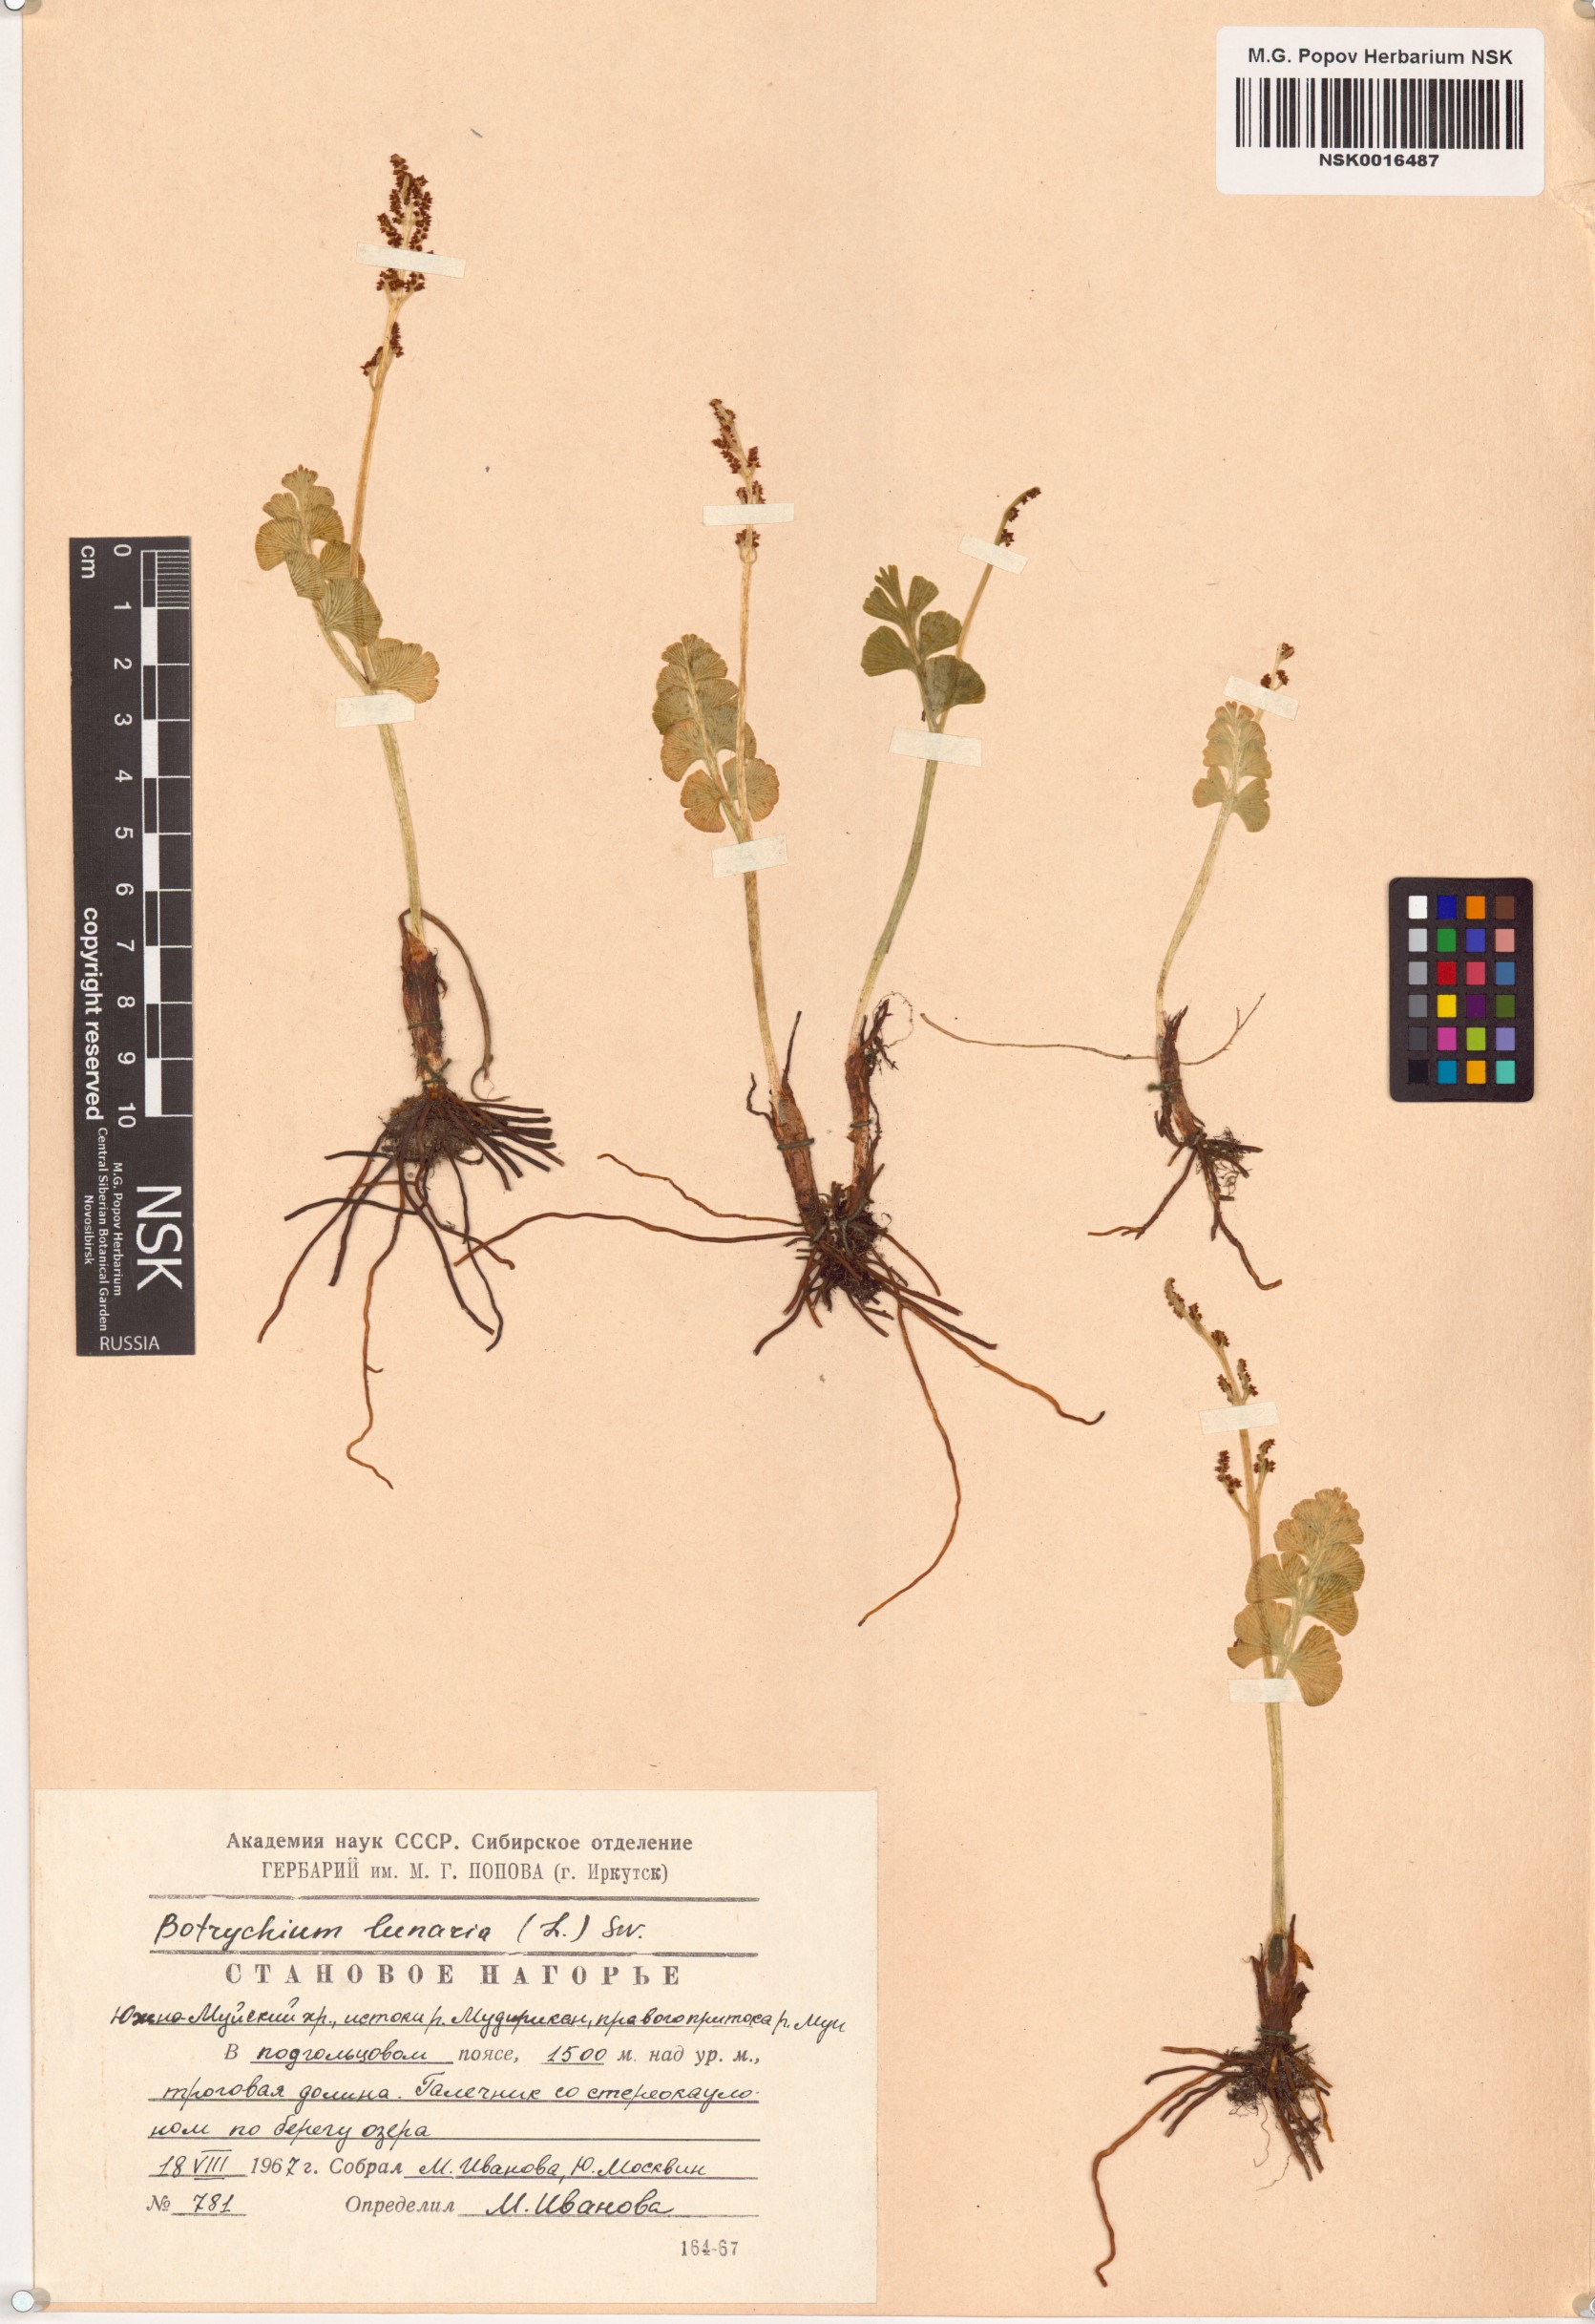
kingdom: Plantae
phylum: Tracheophyta
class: Polypodiopsida
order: Ophioglossales
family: Ophioglossaceae
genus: Botrychium
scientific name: Botrychium lunaria
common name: Moonwort
